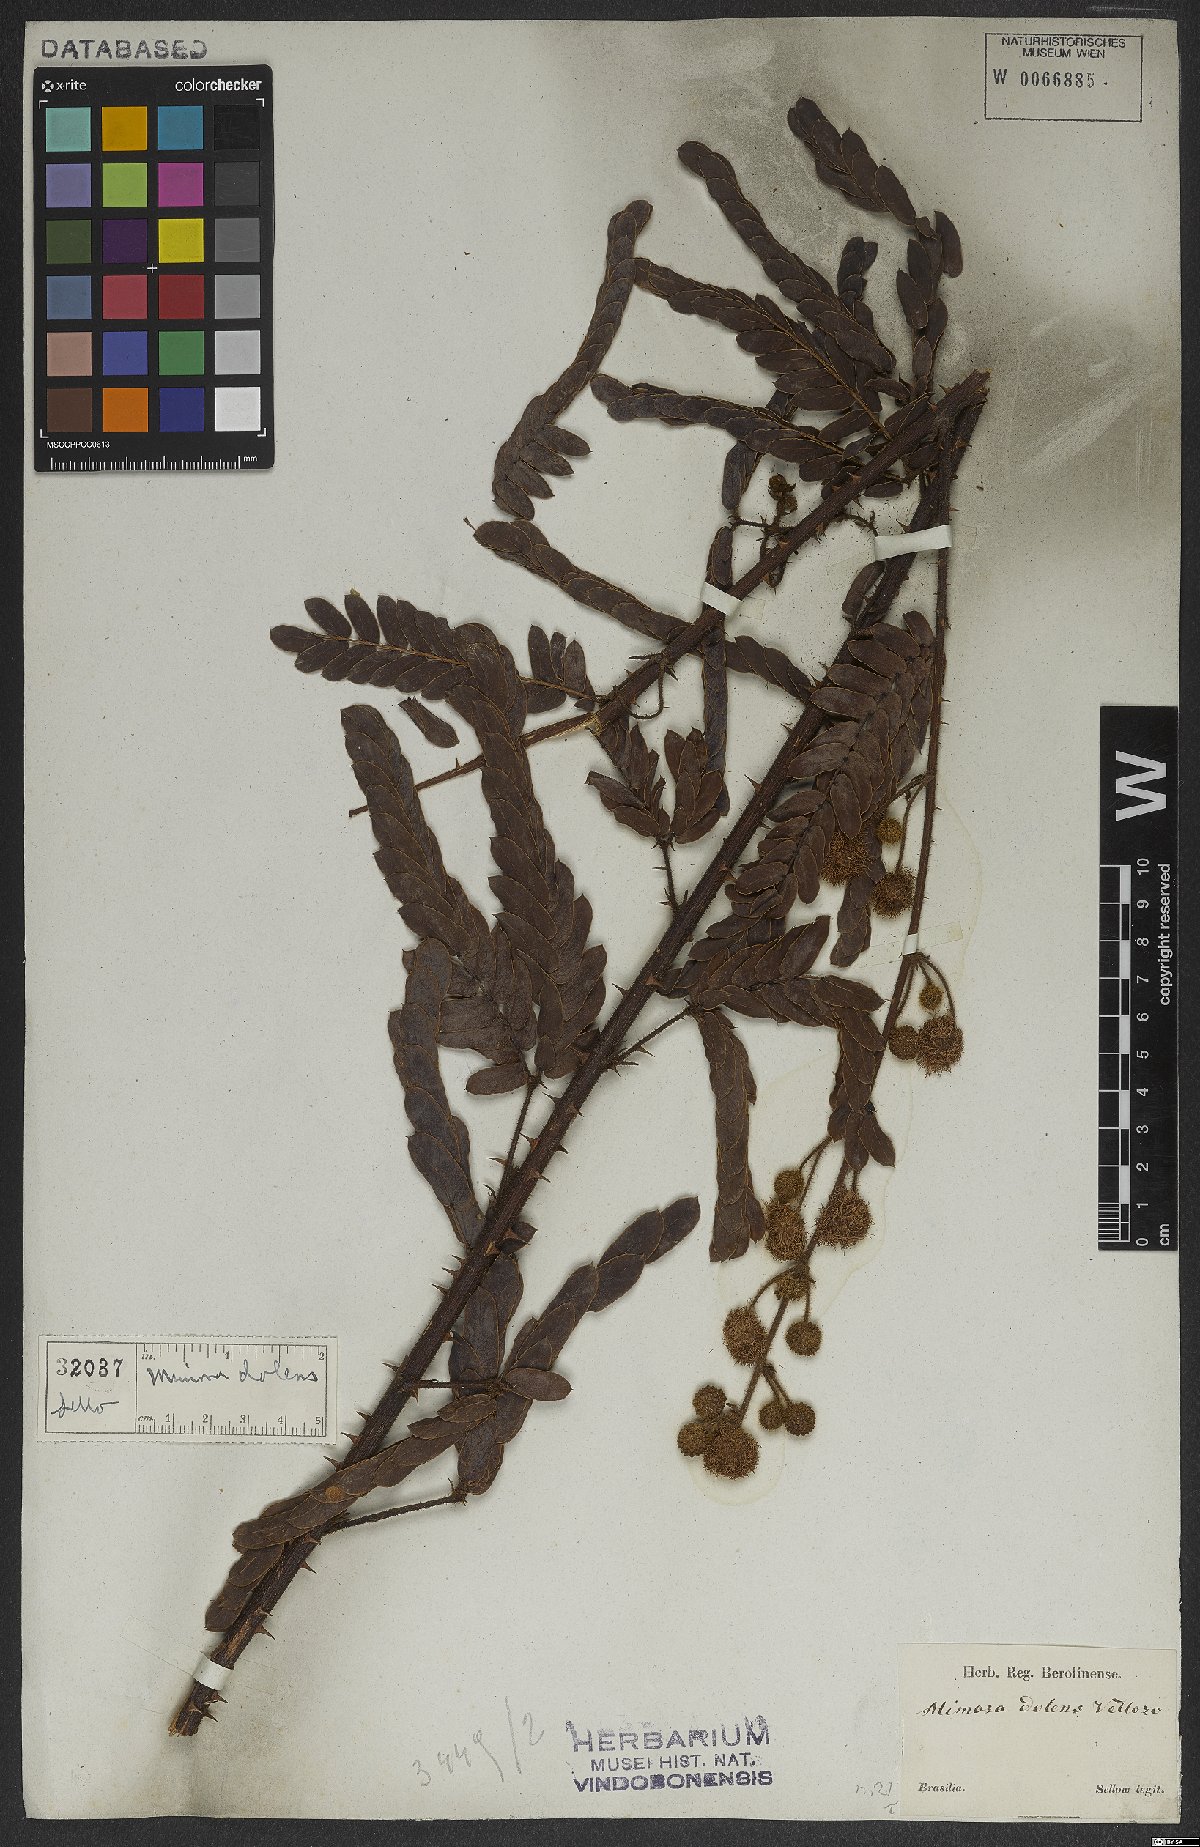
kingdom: Plantae
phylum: Tracheophyta
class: Magnoliopsida
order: Fabales
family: Fabaceae
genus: Mimosa
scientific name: Mimosa dolens
